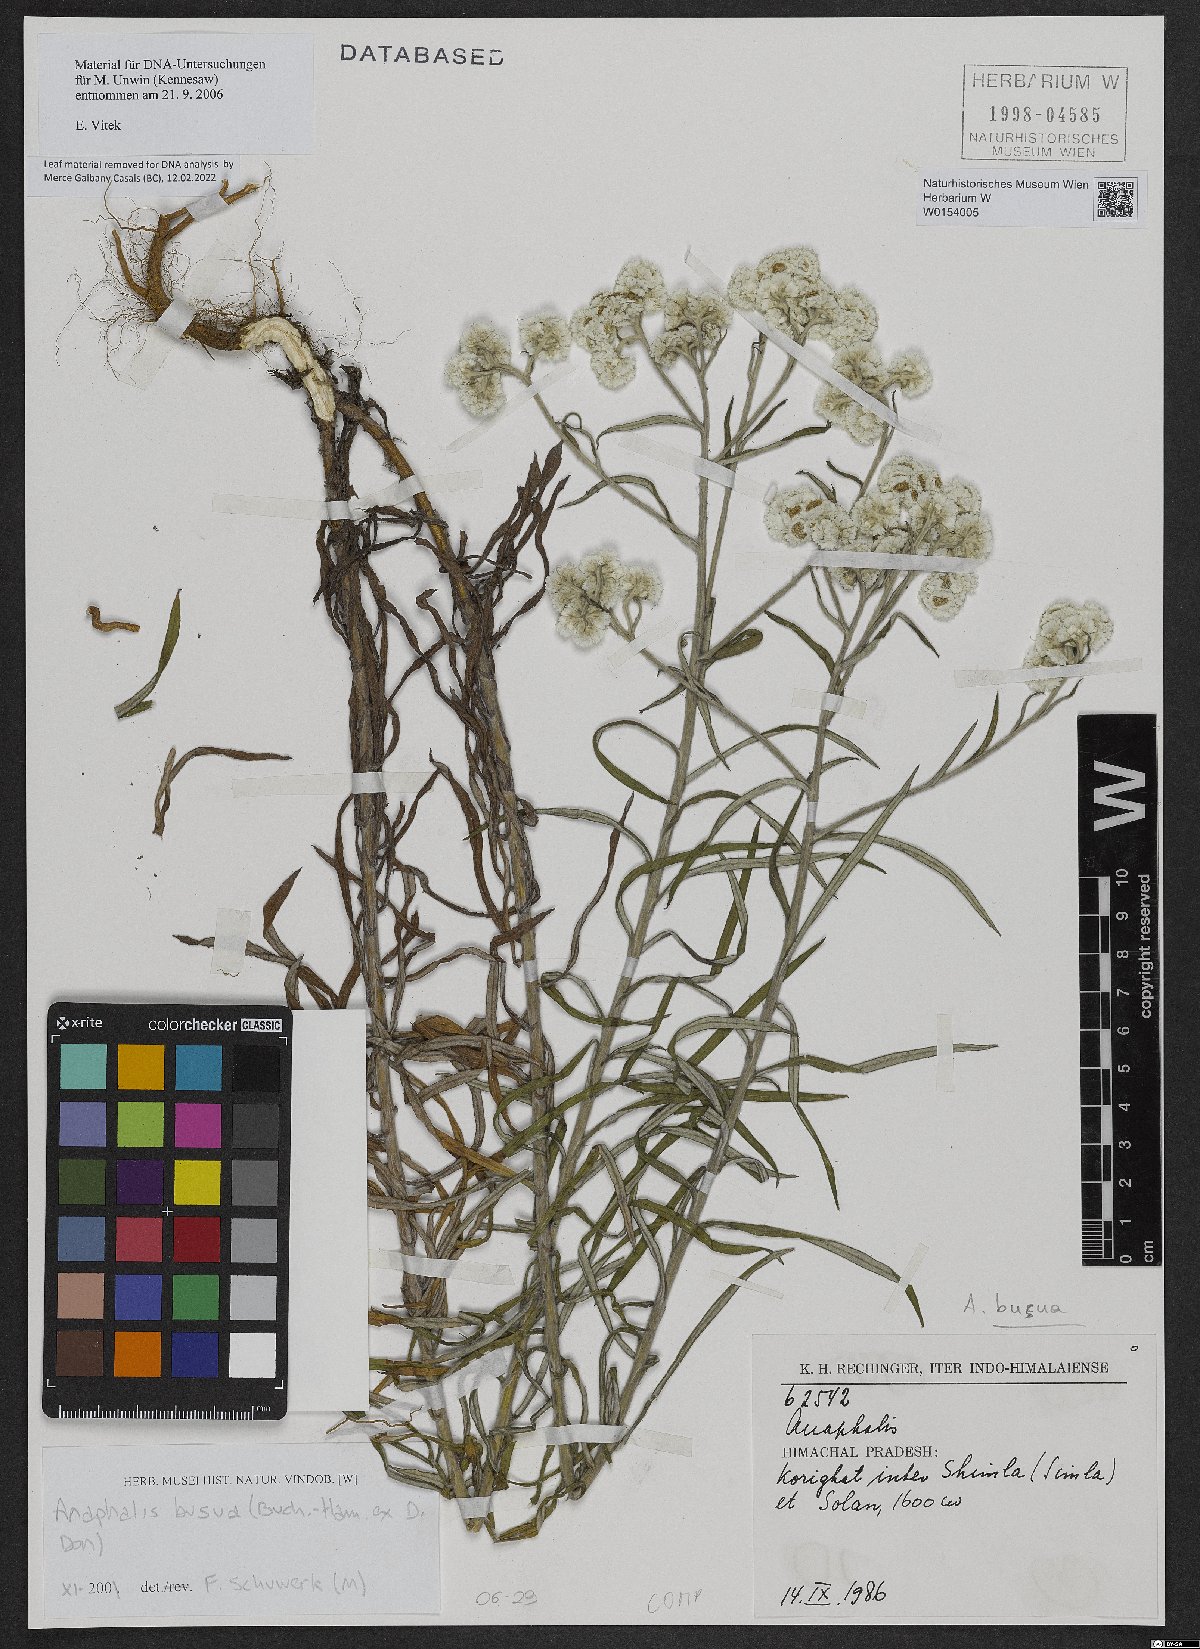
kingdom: Plantae
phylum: Tracheophyta
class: Magnoliopsida
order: Asterales
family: Asteraceae
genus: Anaphalis
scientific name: Anaphalis busua
